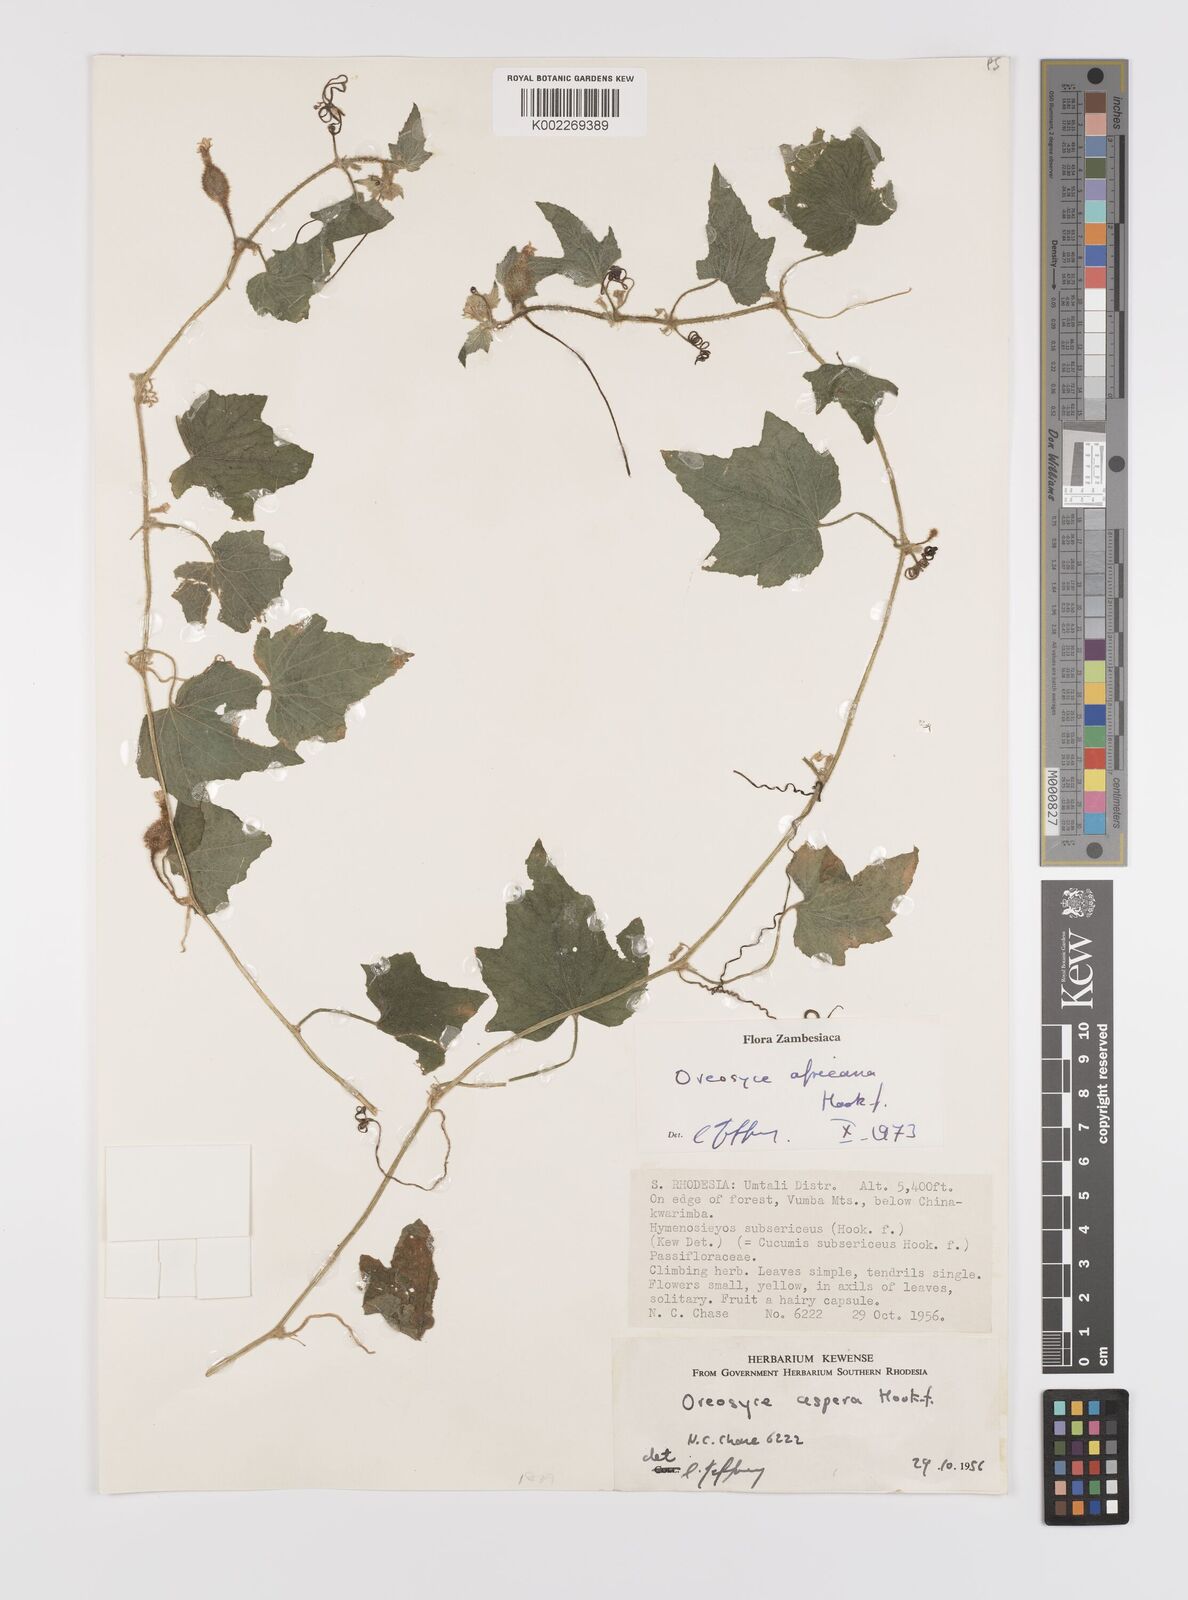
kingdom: Plantae
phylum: Tracheophyta
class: Magnoliopsida
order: Cucurbitales
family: Cucurbitaceae
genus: Cucumis
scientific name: Cucumis oreosyce
